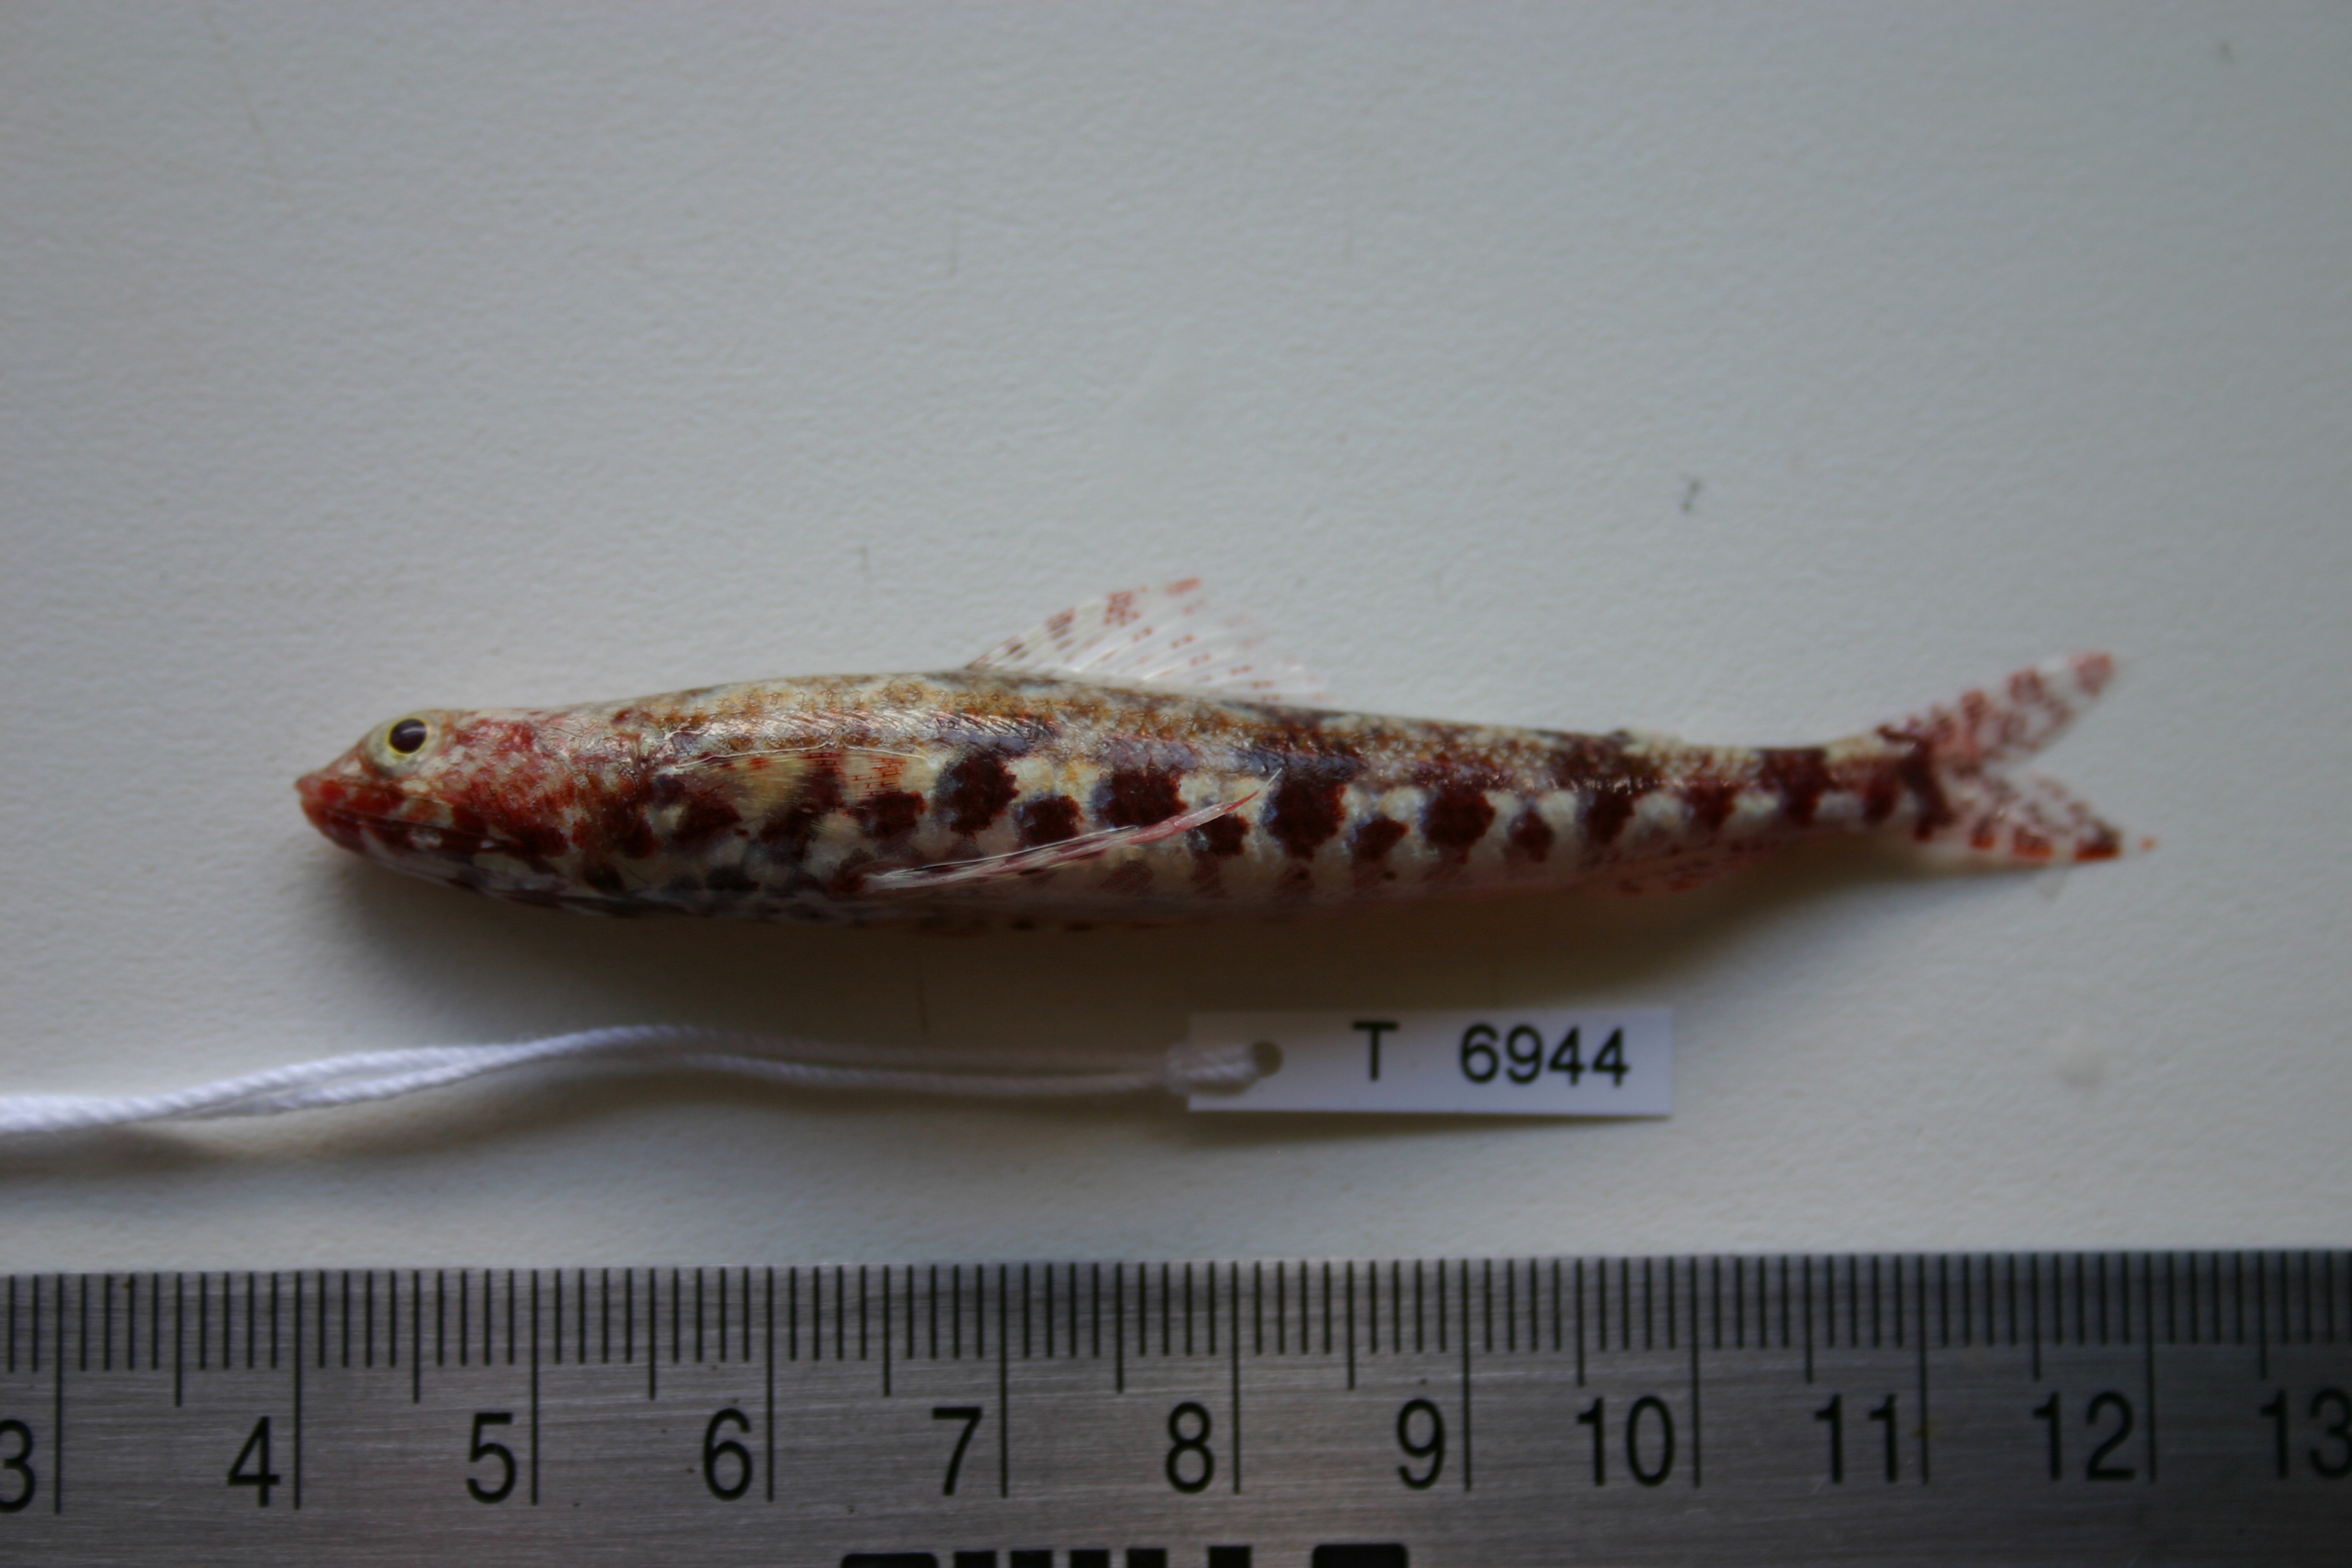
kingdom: Animalia
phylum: Chordata
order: Aulopiformes
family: Synodontidae
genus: Synodus
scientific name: Synodus binotatus
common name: Twospot lizardfish
